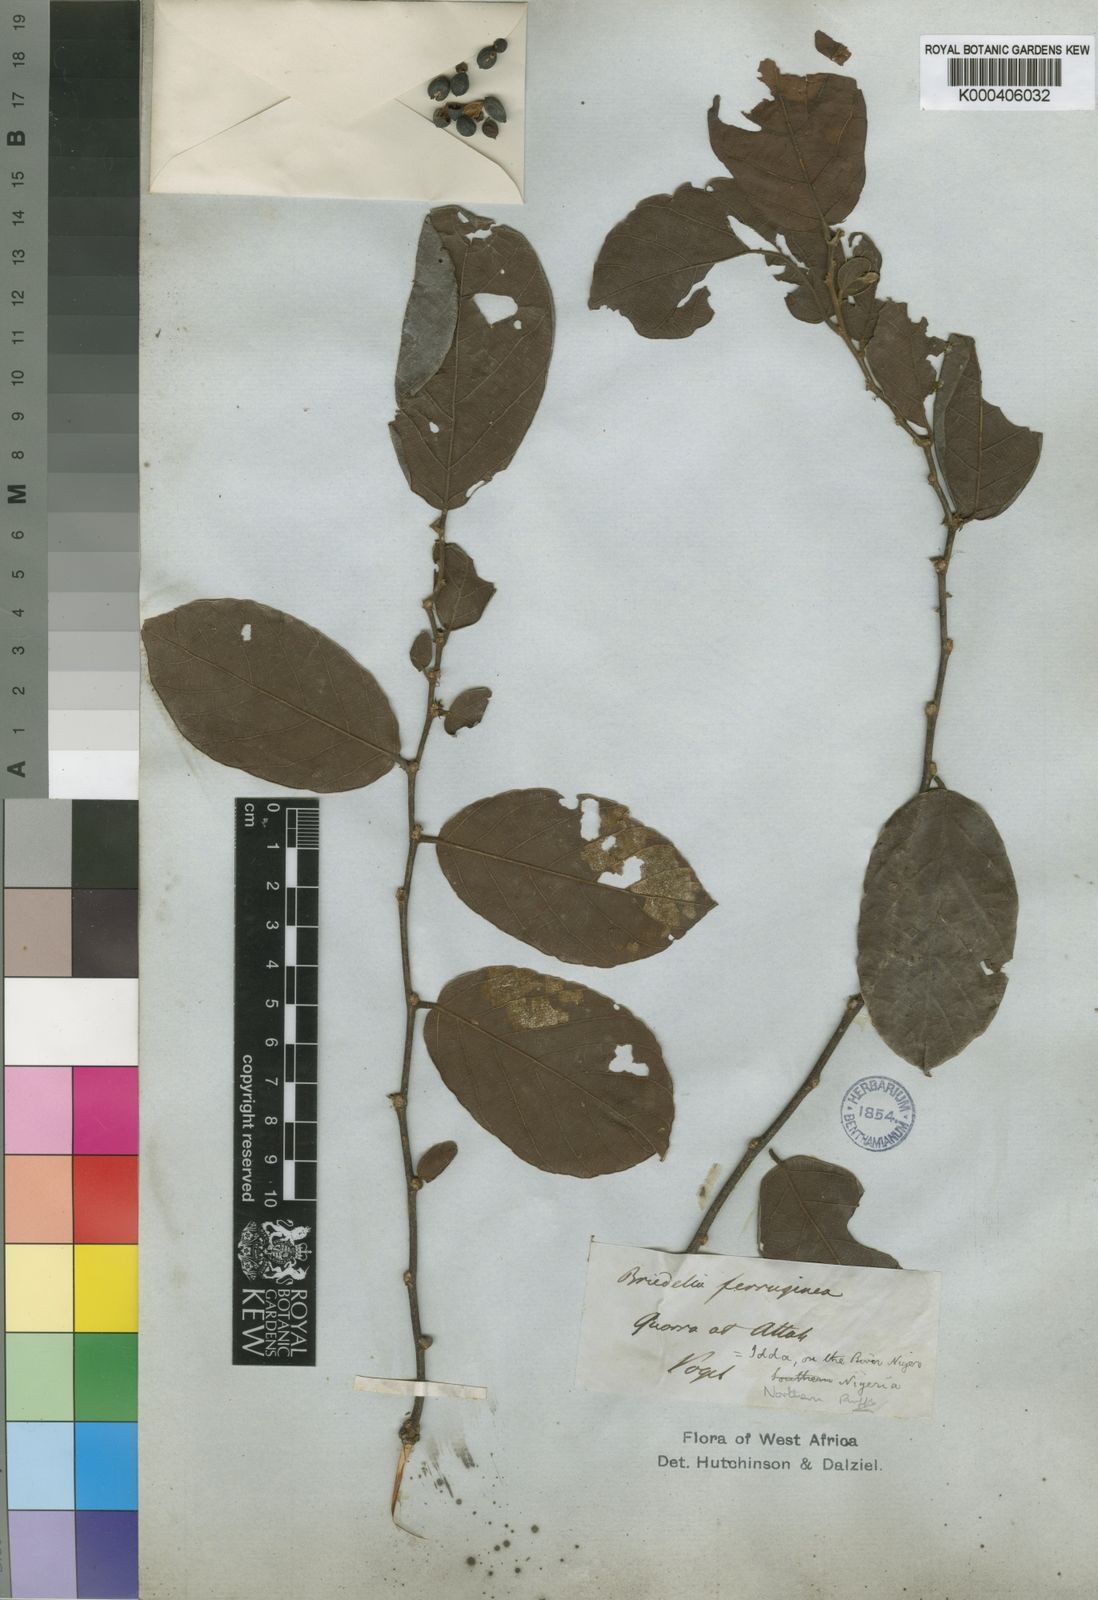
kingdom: Plantae
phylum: Tracheophyta
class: Magnoliopsida
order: Malpighiales
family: Phyllanthaceae
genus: Bridelia
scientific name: Bridelia ferruginea
